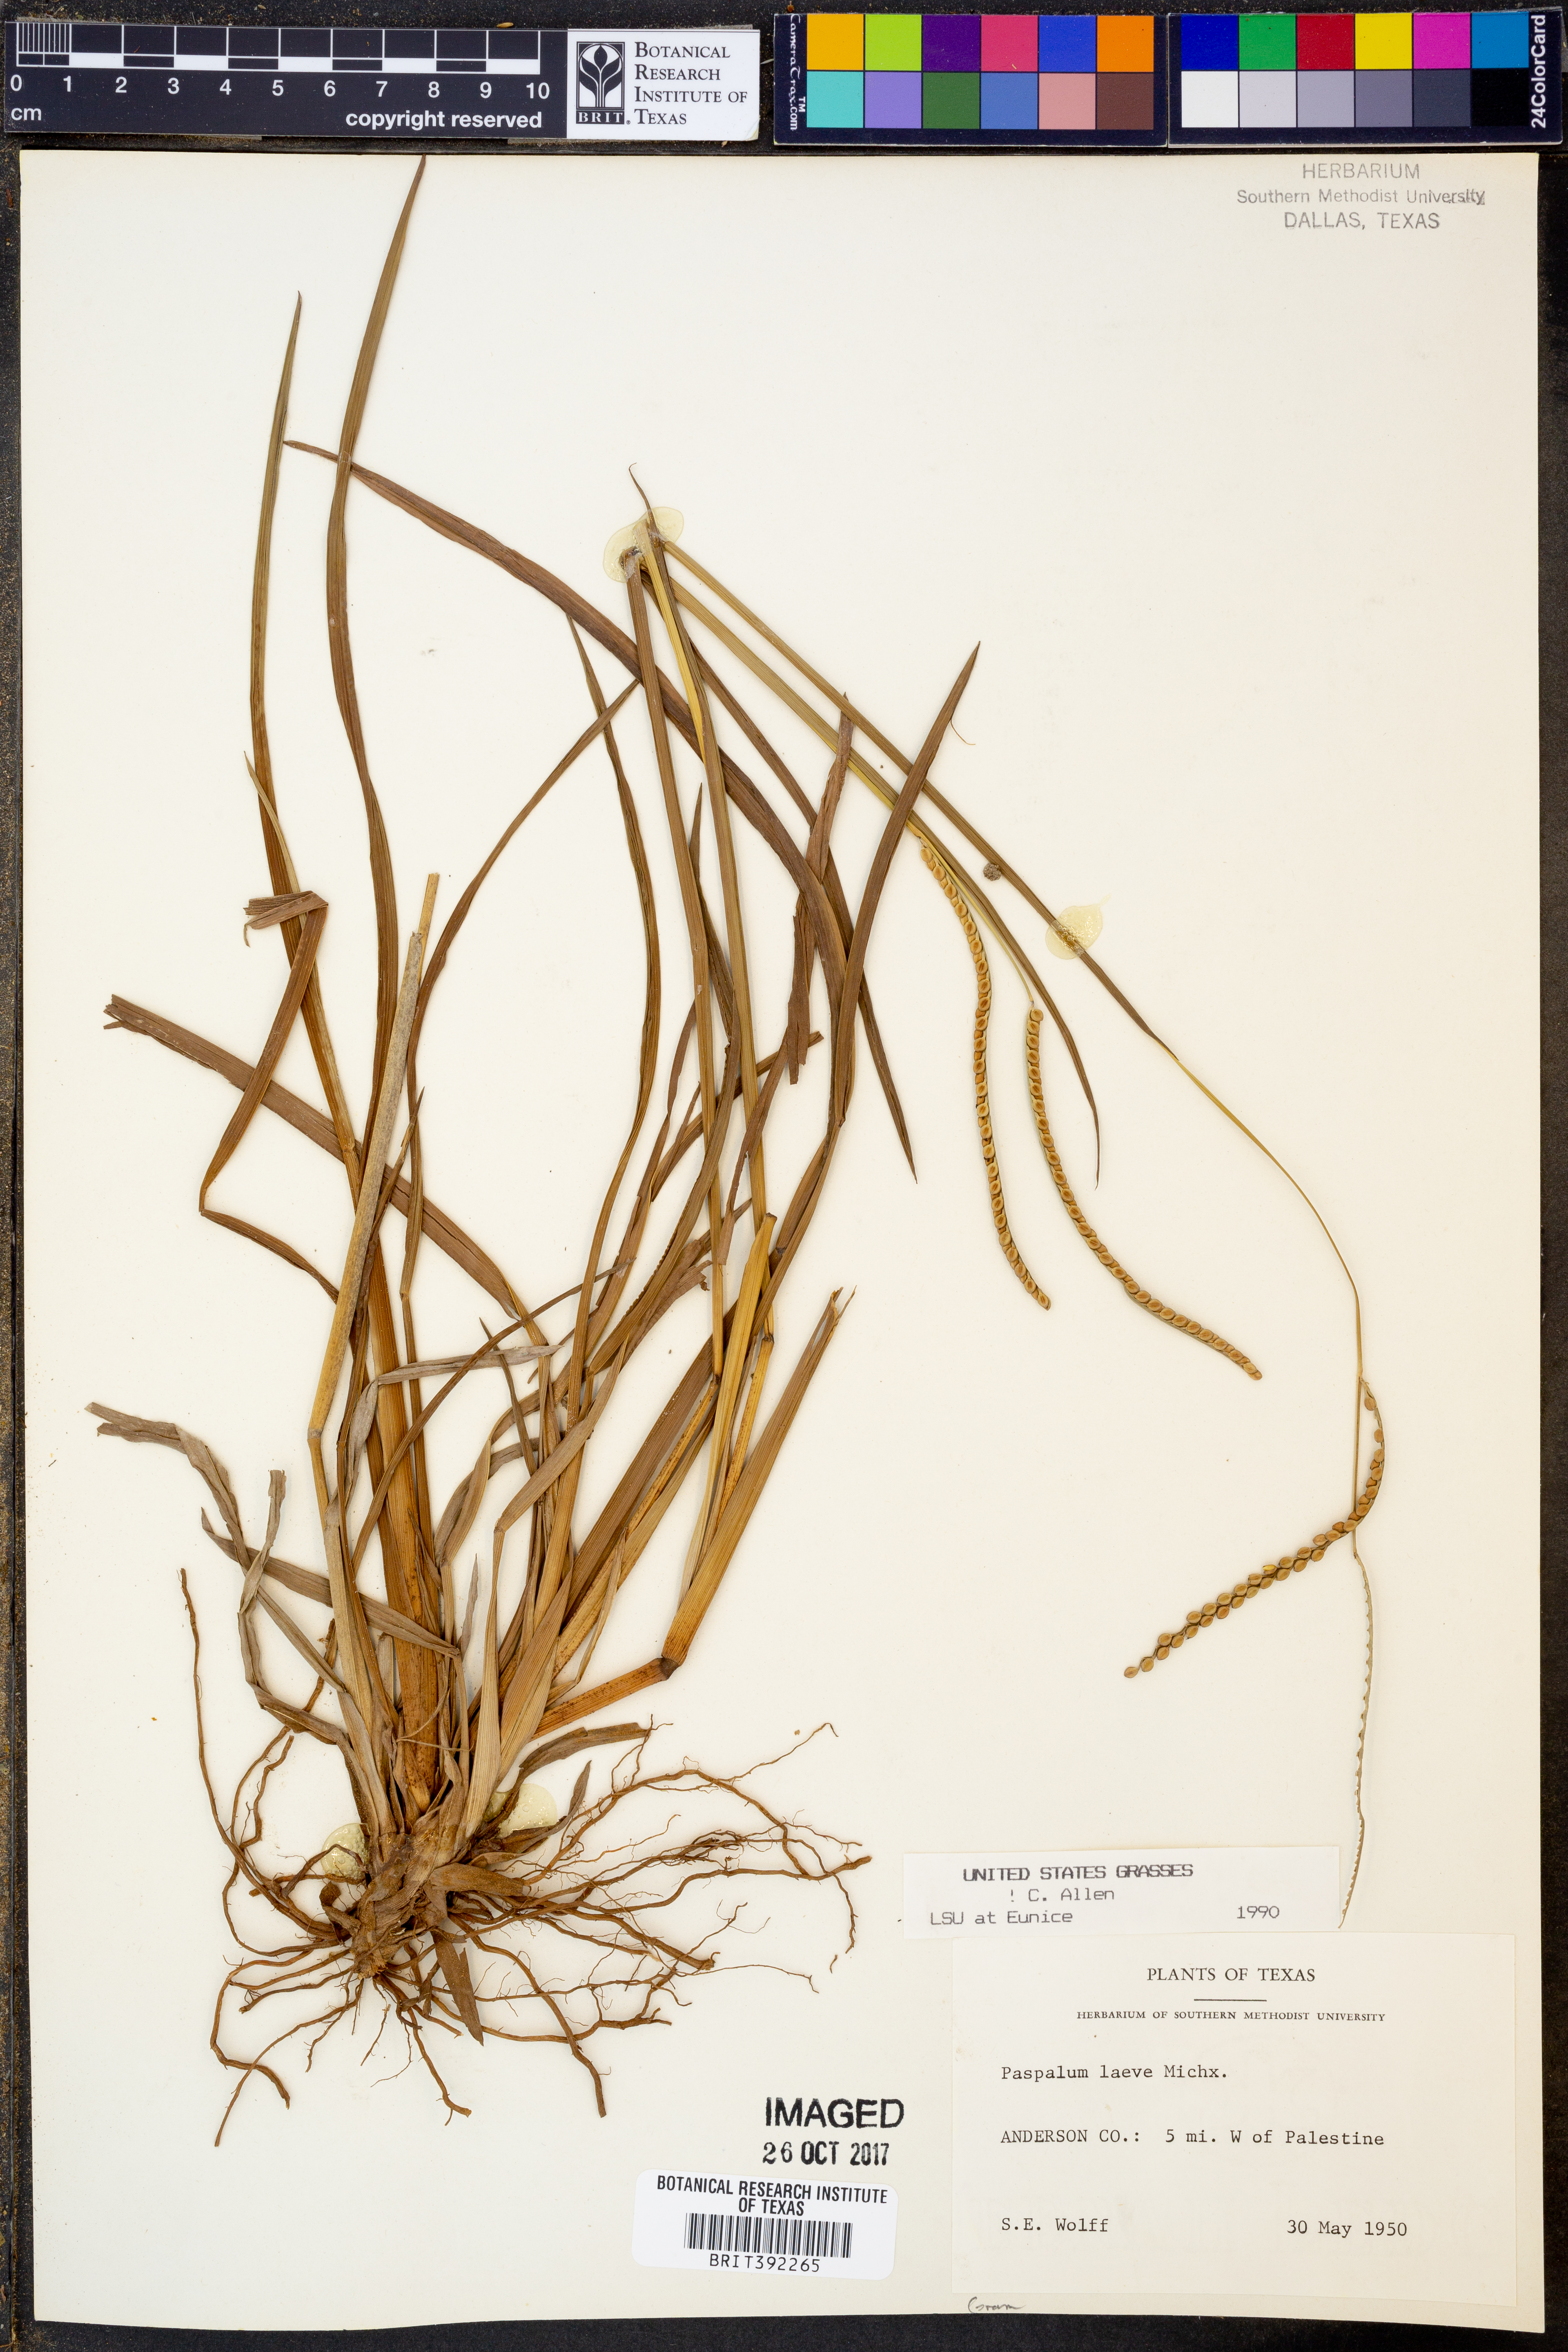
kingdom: Plantae
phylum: Tracheophyta
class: Liliopsida
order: Poales
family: Poaceae
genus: Paspalum
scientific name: Paspalum laeve
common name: Field paspalum
